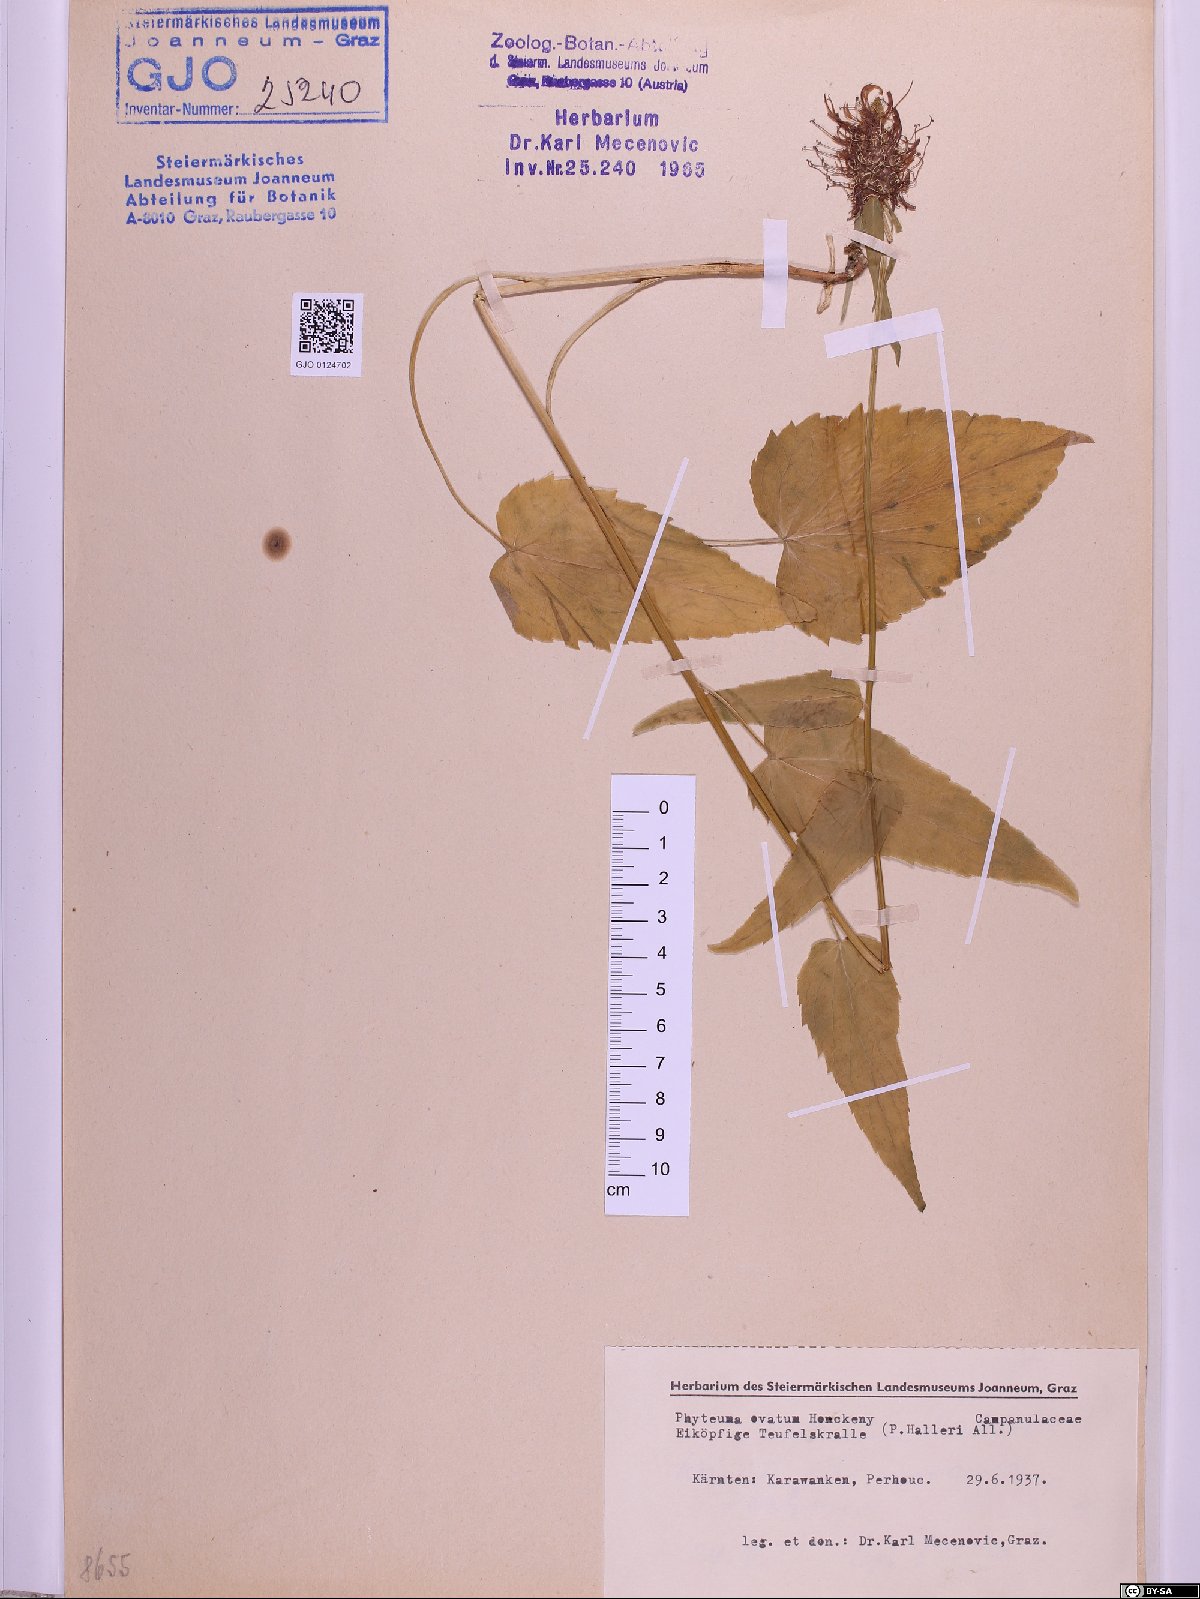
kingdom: Plantae
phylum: Tracheophyta
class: Magnoliopsida
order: Asterales
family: Campanulaceae
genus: Phyteuma
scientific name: Phyteuma ovatum
